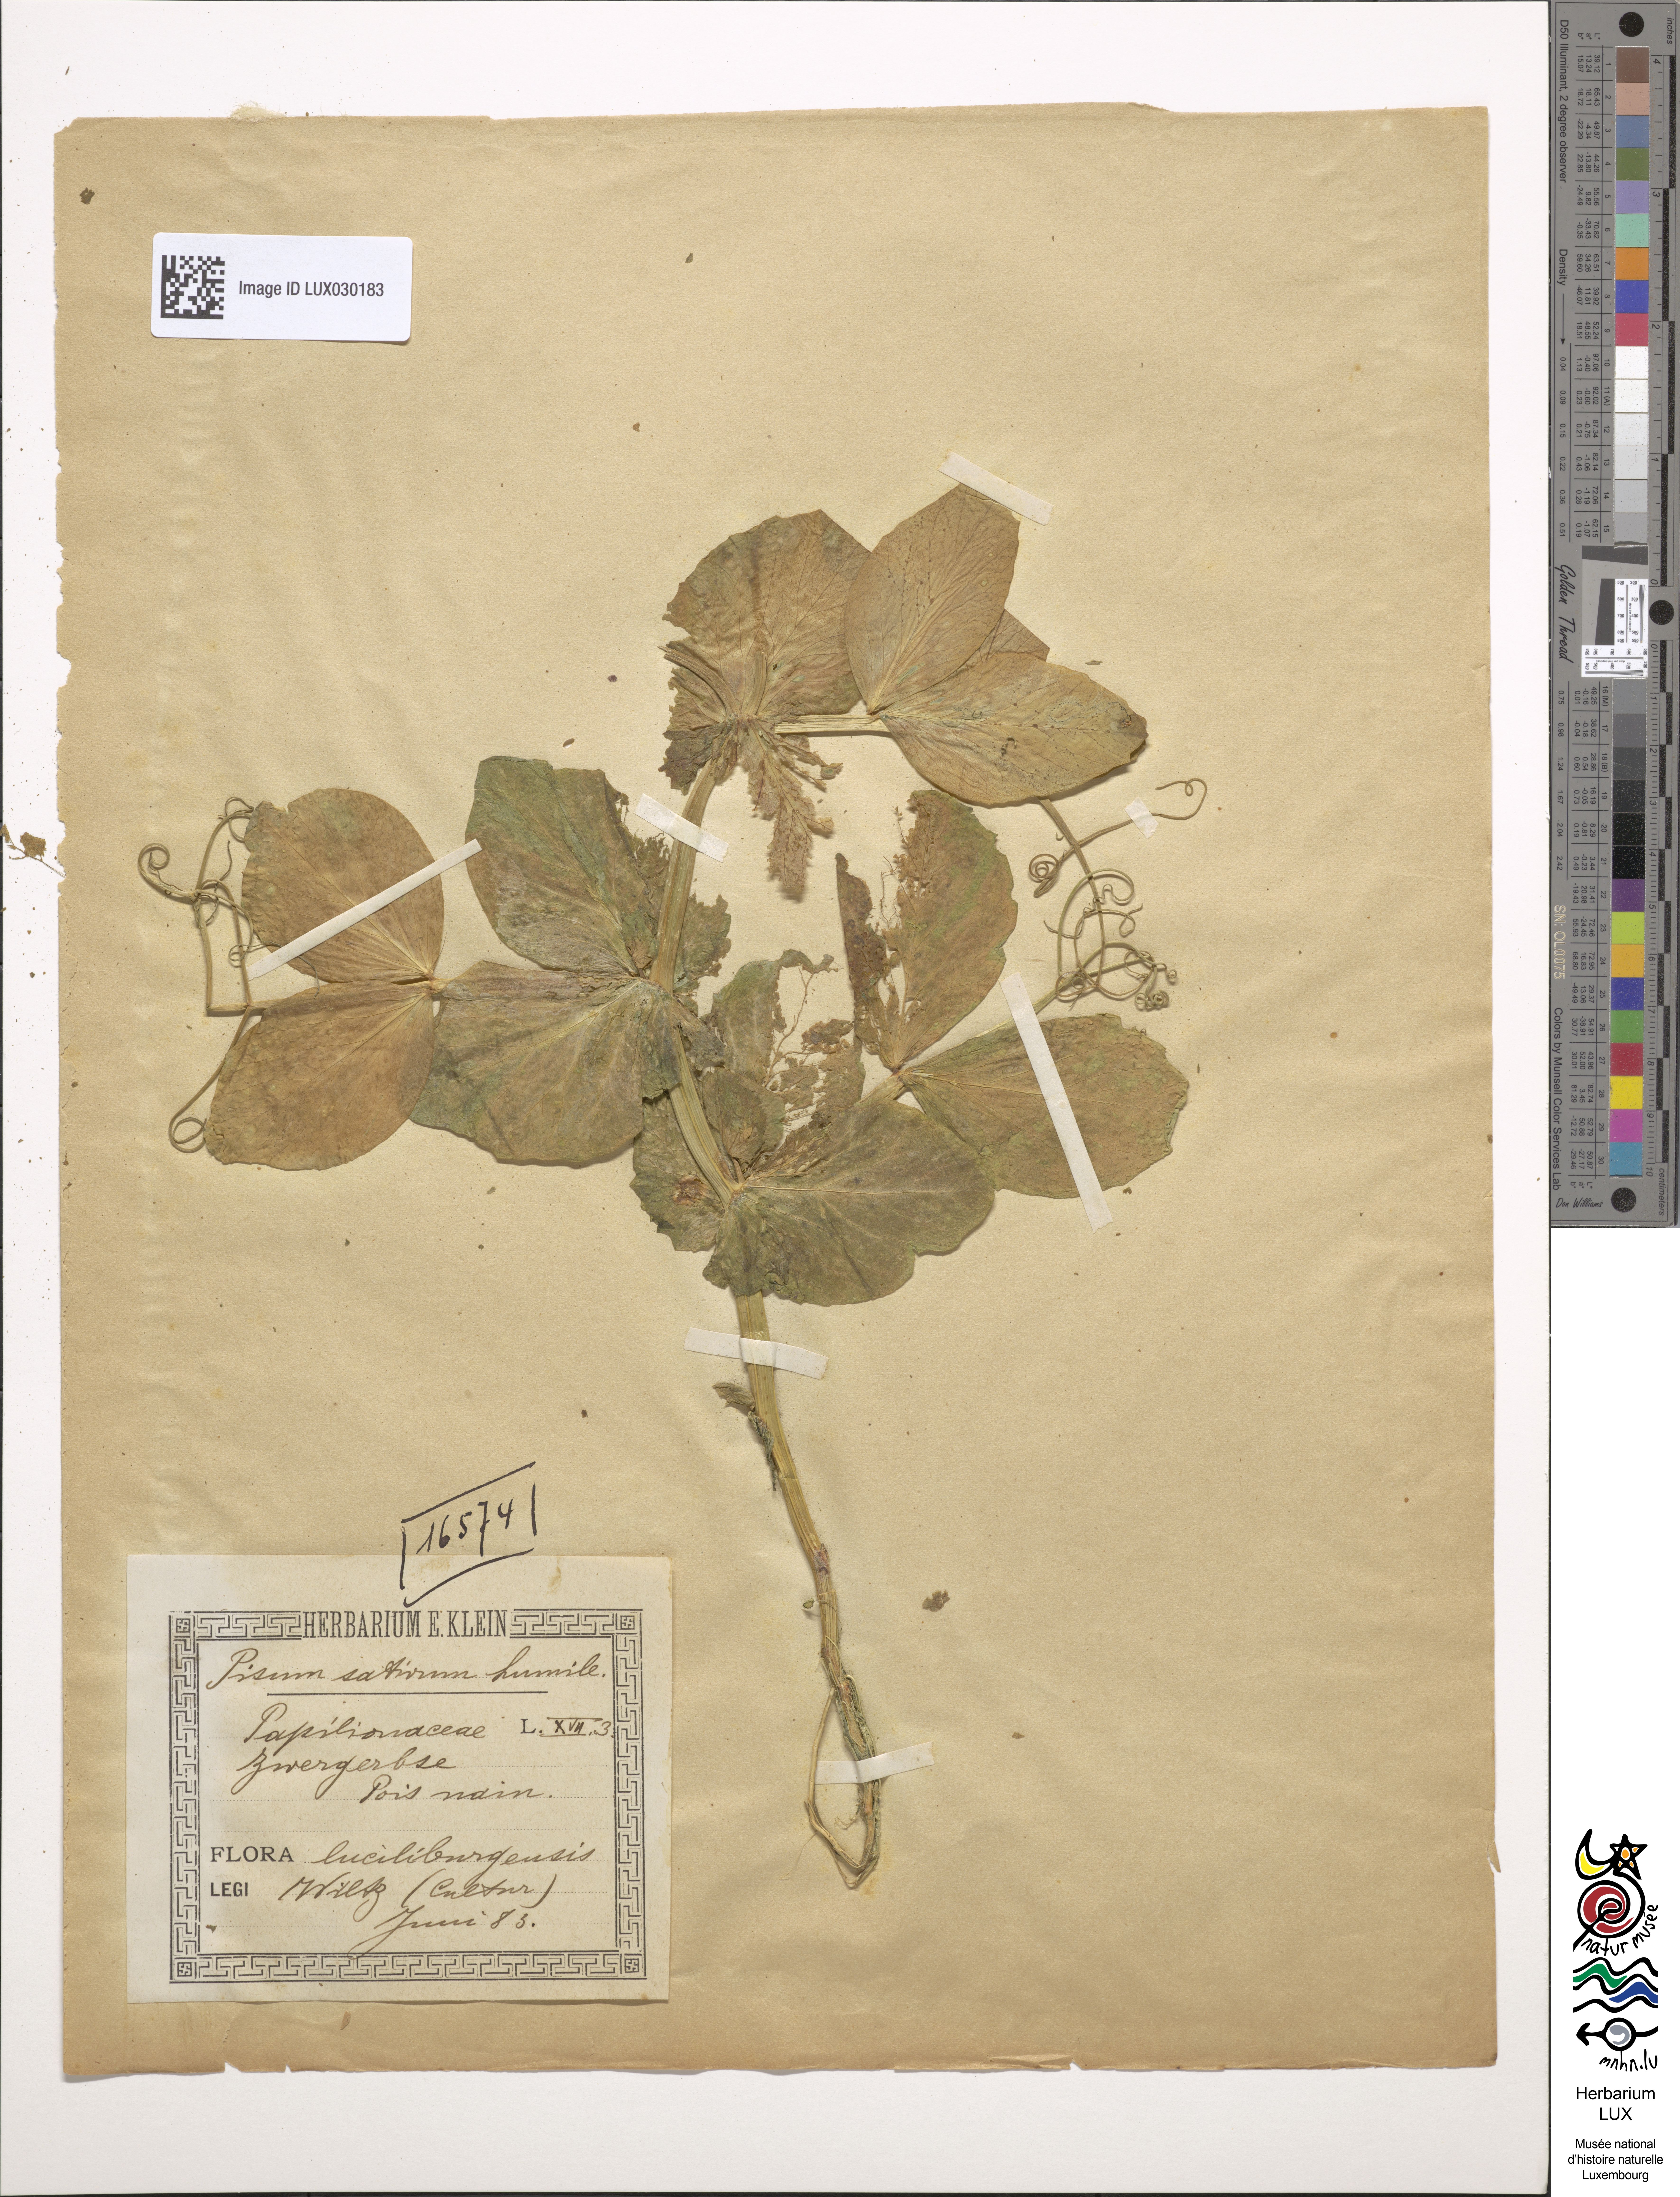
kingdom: Plantae
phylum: Tracheophyta
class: Magnoliopsida
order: Fabales
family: Fabaceae
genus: Lathyrus
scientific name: Lathyrus oleraceus
